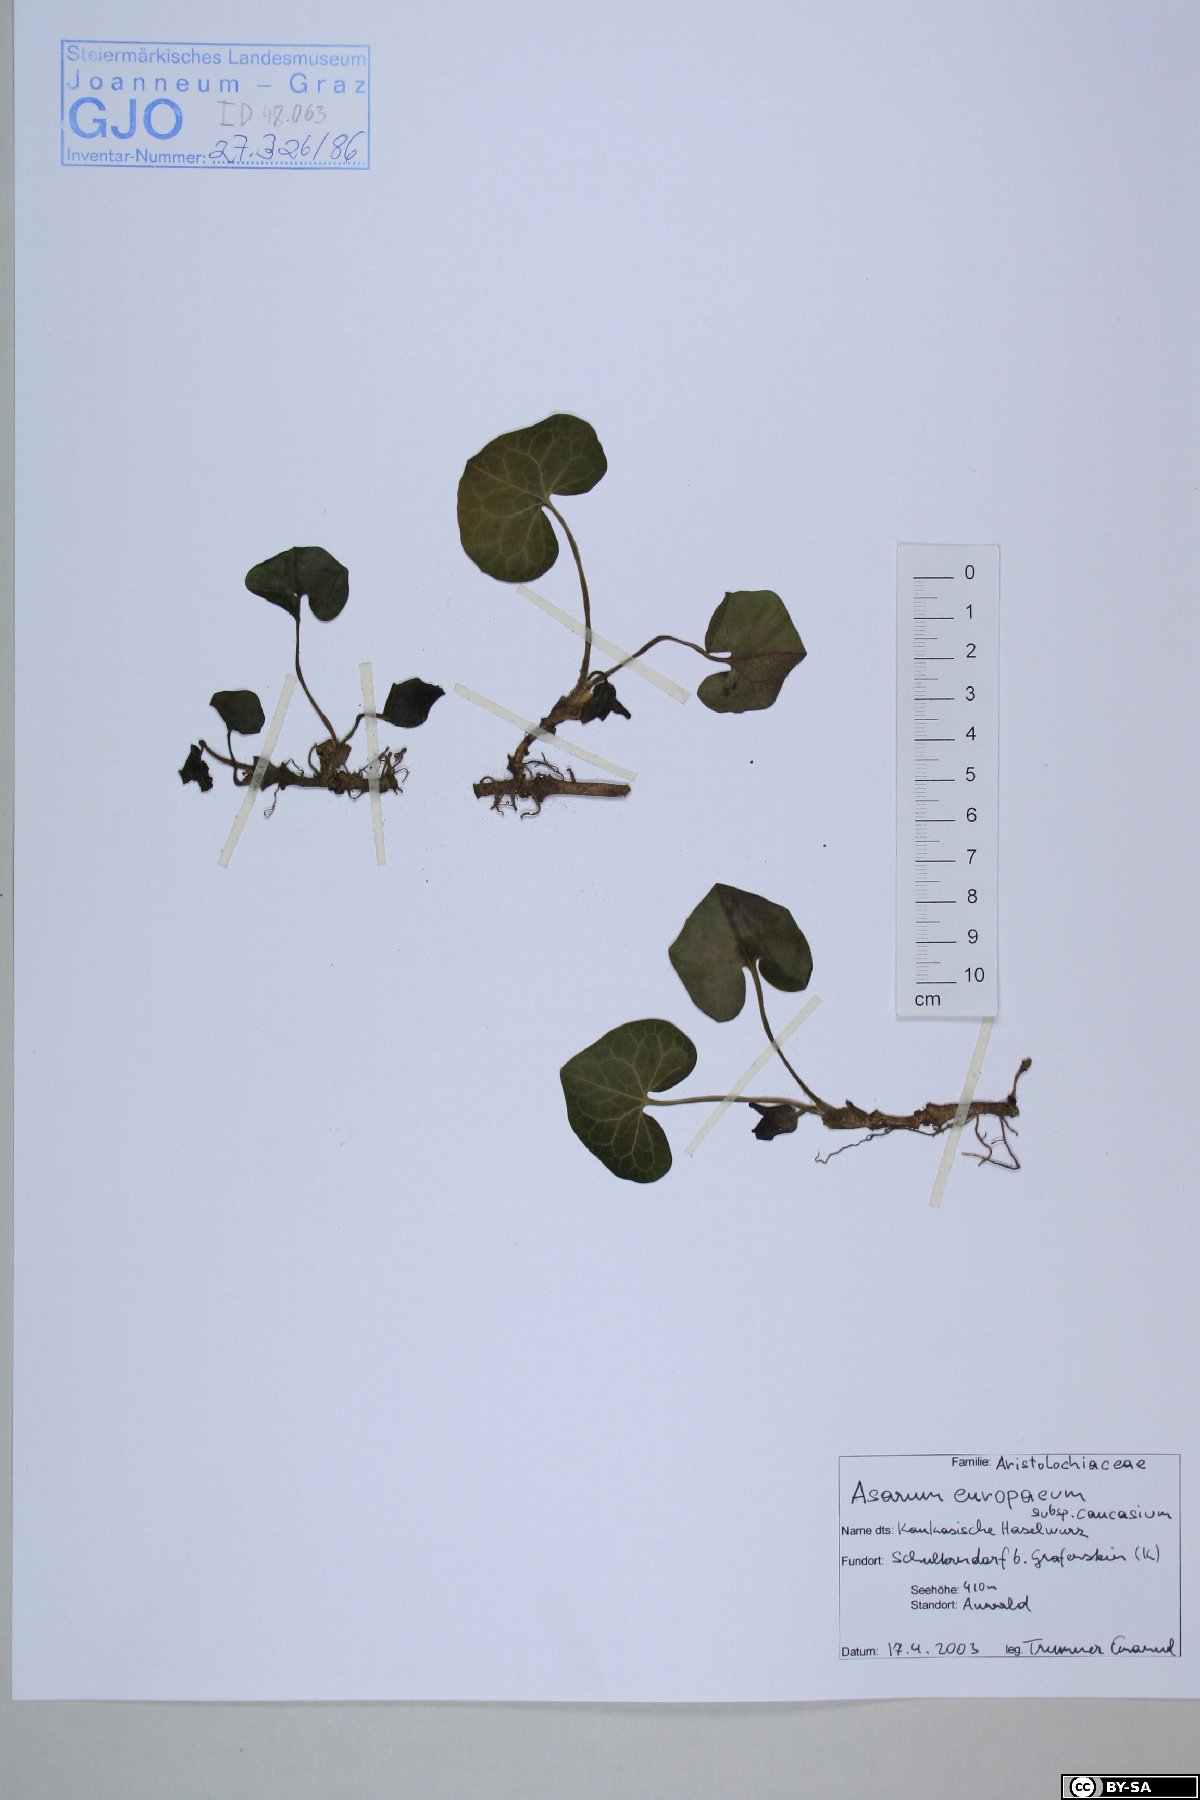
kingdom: Plantae
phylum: Tracheophyta
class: Magnoliopsida
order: Piperales
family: Aristolochiaceae
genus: Asarum
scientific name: Asarum europaeum
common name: Asarabacca
